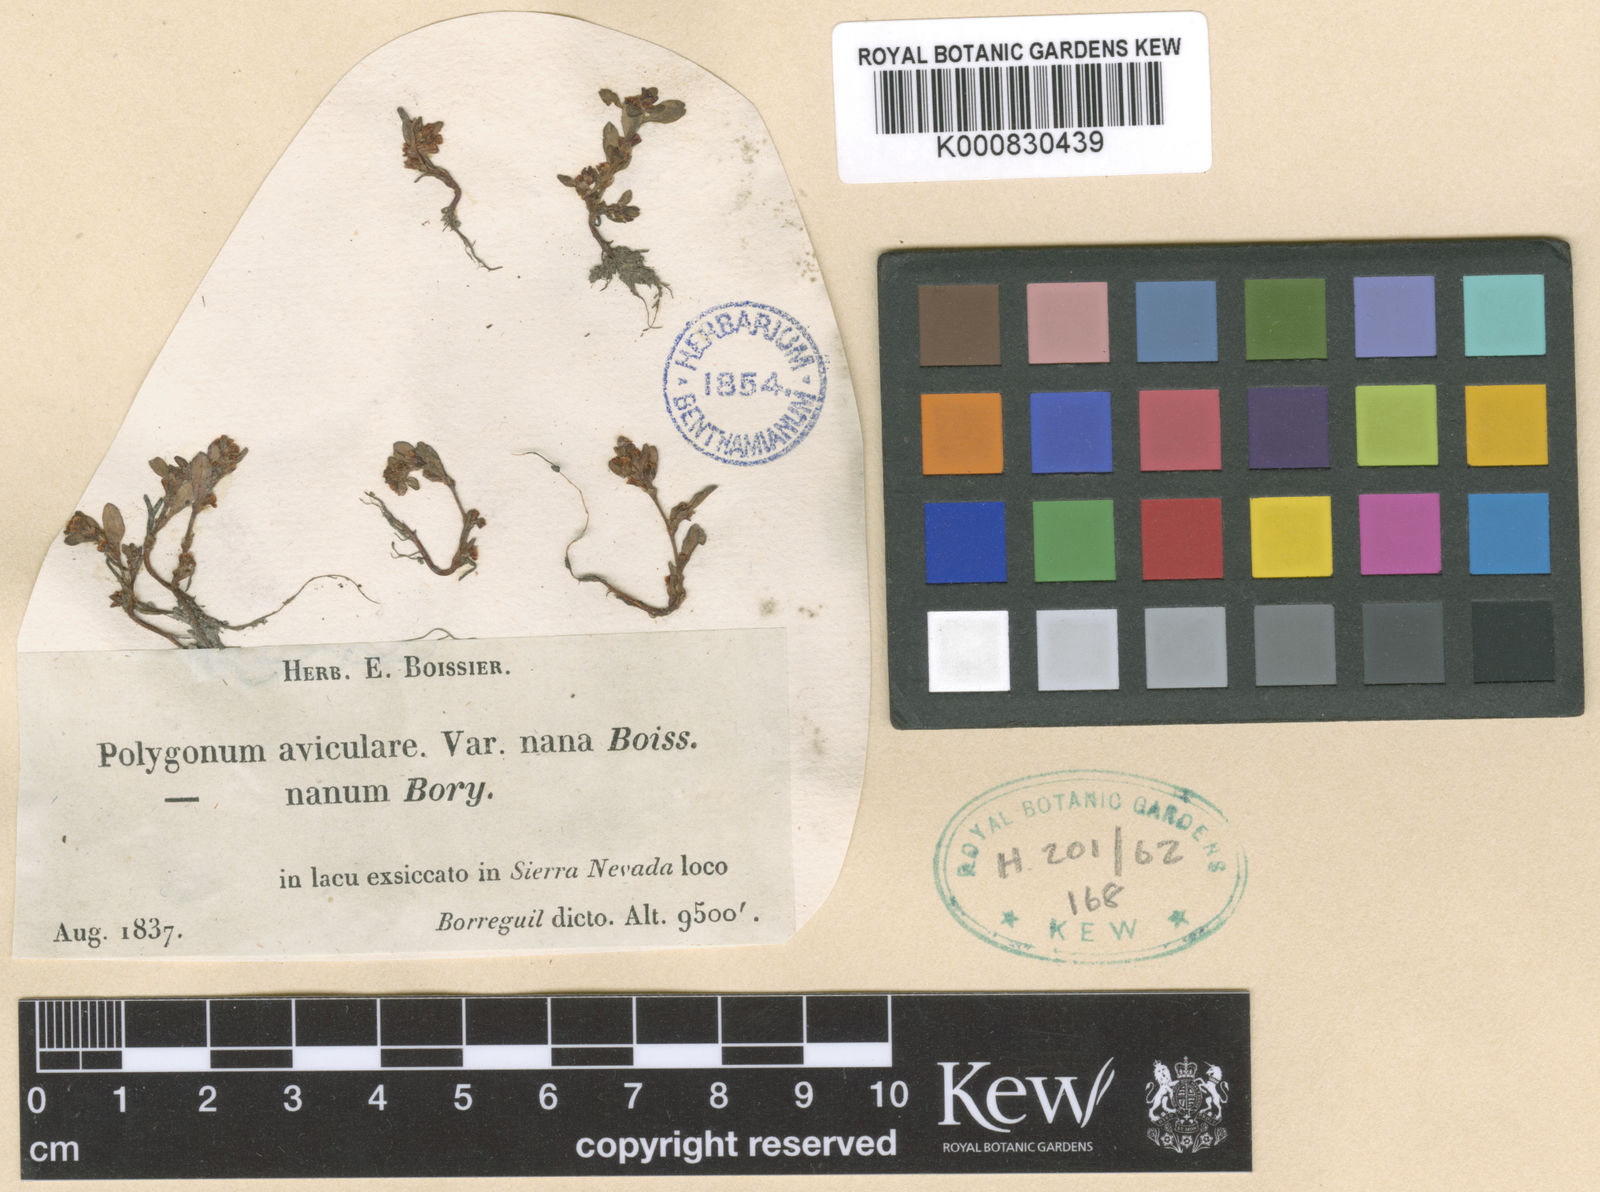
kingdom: Plantae
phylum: Tracheophyta
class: Magnoliopsida
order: Caryophyllales
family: Polygonaceae
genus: Polygonum
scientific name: Polygonum aviculare
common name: Prostrate knotweed
